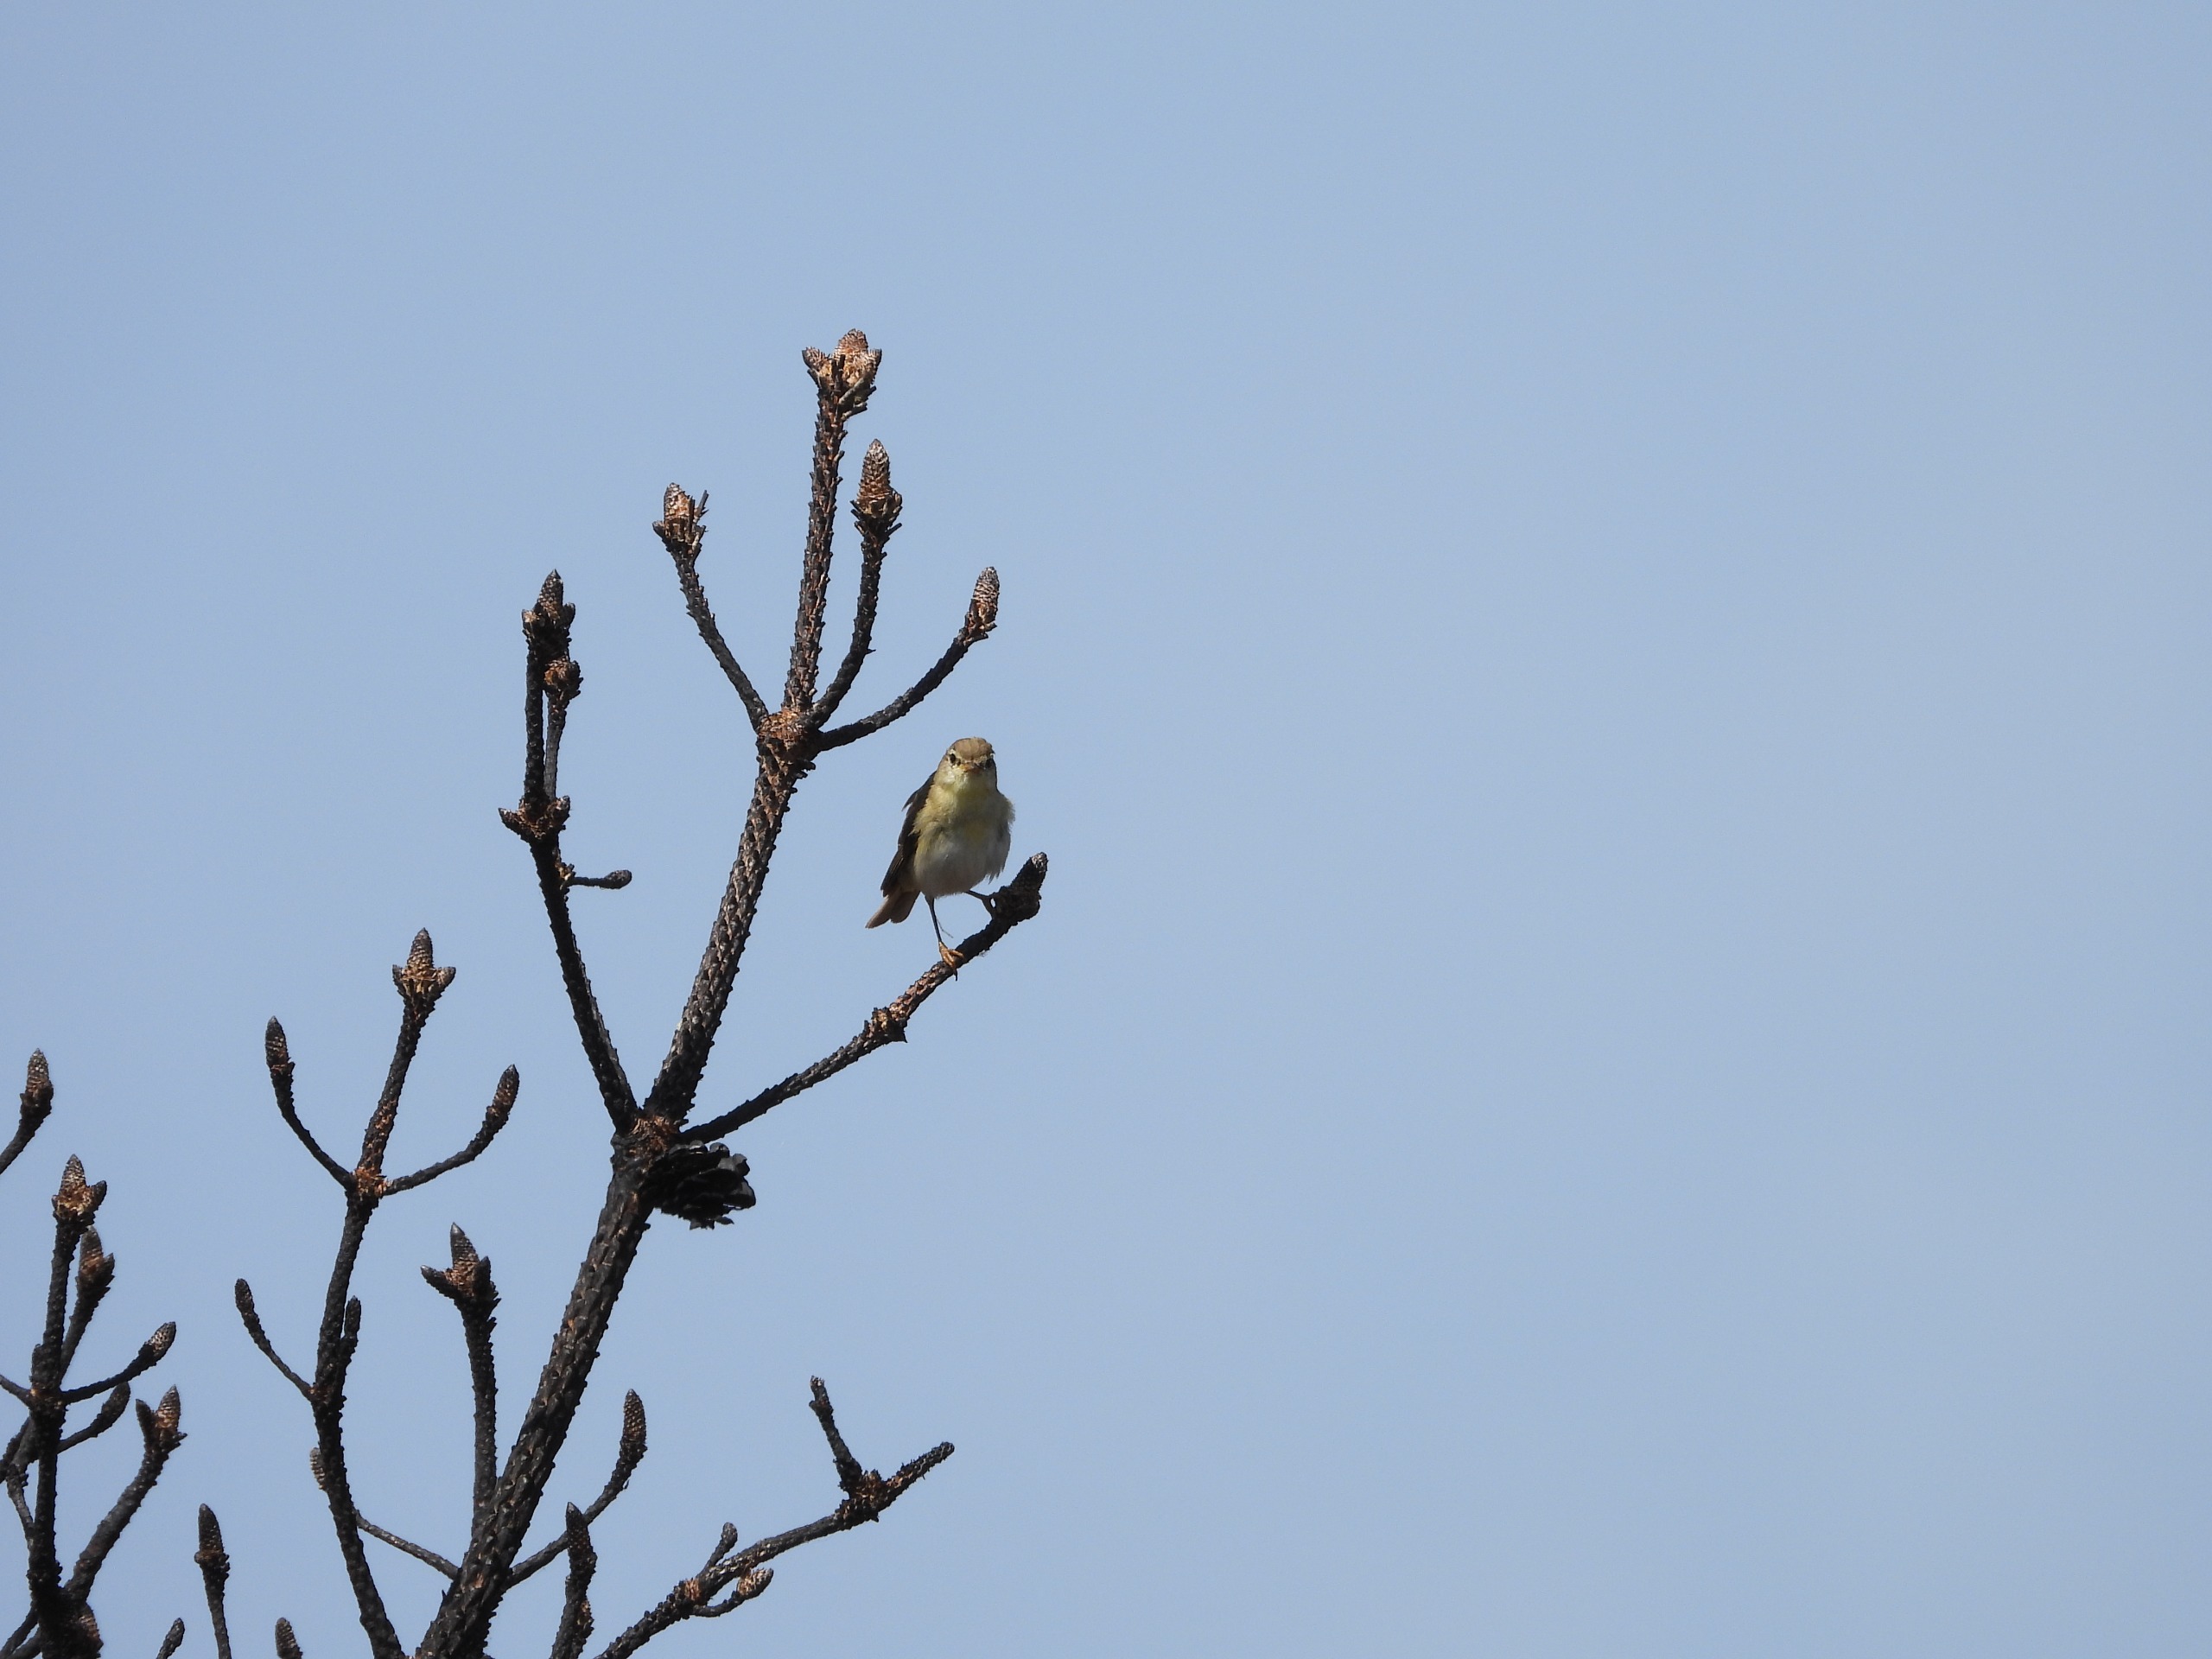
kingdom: Animalia
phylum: Chordata
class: Aves
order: Passeriformes
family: Phylloscopidae
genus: Phylloscopus
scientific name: Phylloscopus trochilus
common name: Løvsanger
